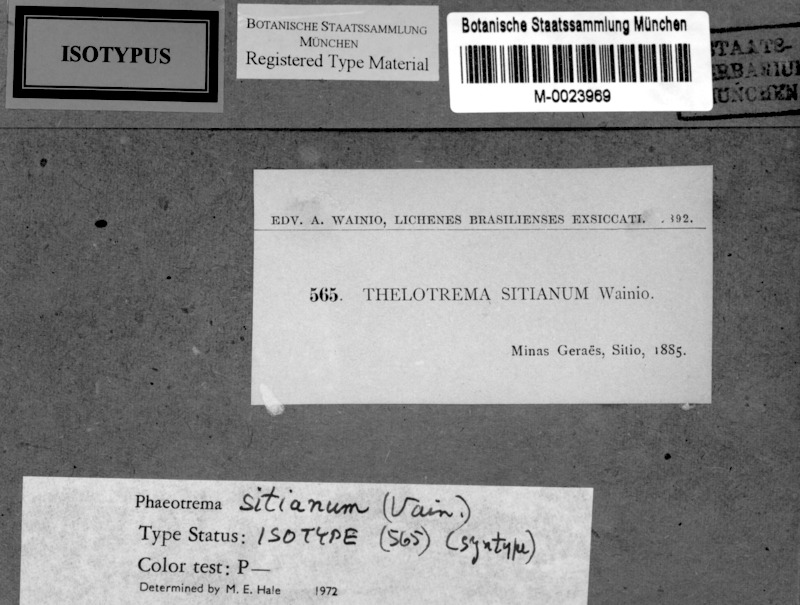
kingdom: Fungi
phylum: Ascomycota
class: Lecanoromycetes
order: Ostropales
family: Graphidaceae
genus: Thelotrema
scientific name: Thelotrema sitianum
